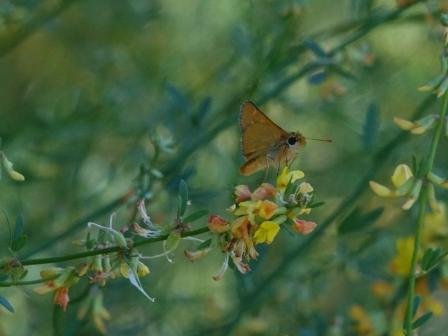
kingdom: Animalia
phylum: Arthropoda
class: Insecta
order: Lepidoptera
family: Hesperiidae
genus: Ochlodes
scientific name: Ochlodes agricola
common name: Rural Skipper
